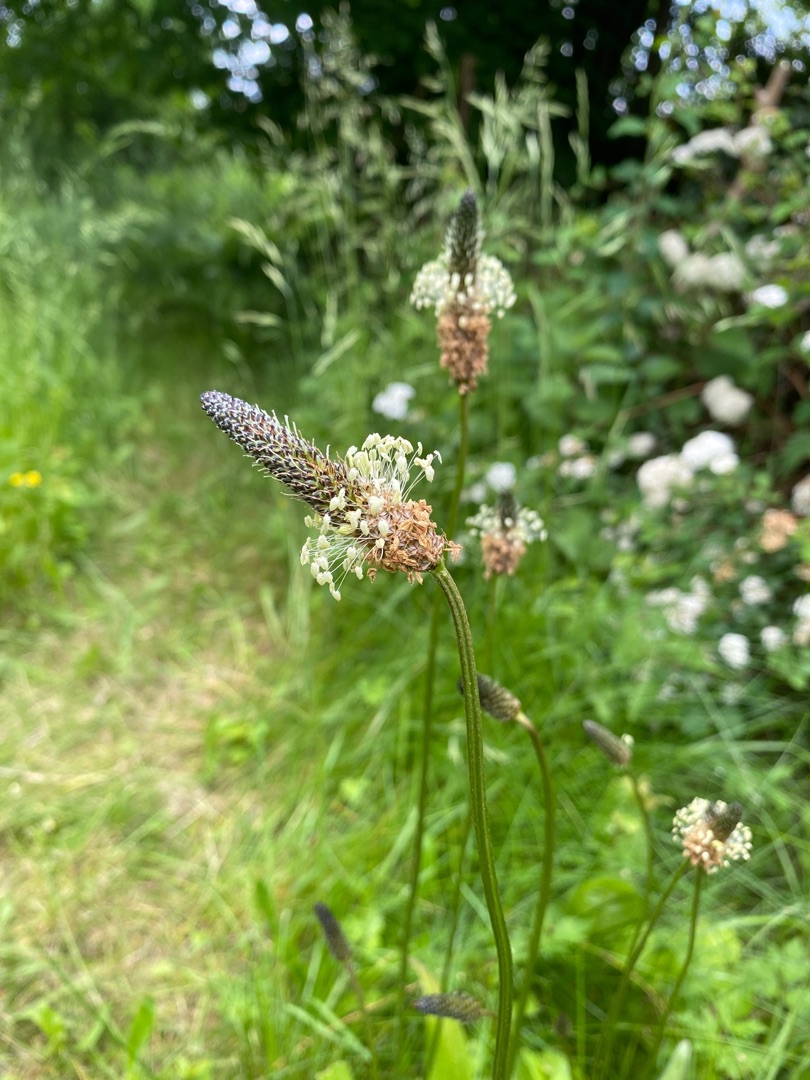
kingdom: Plantae
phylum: Tracheophyta
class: Magnoliopsida
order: Lamiales
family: Plantaginaceae
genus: Plantago
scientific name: Plantago lanceolata
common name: Lancet-vejbred
